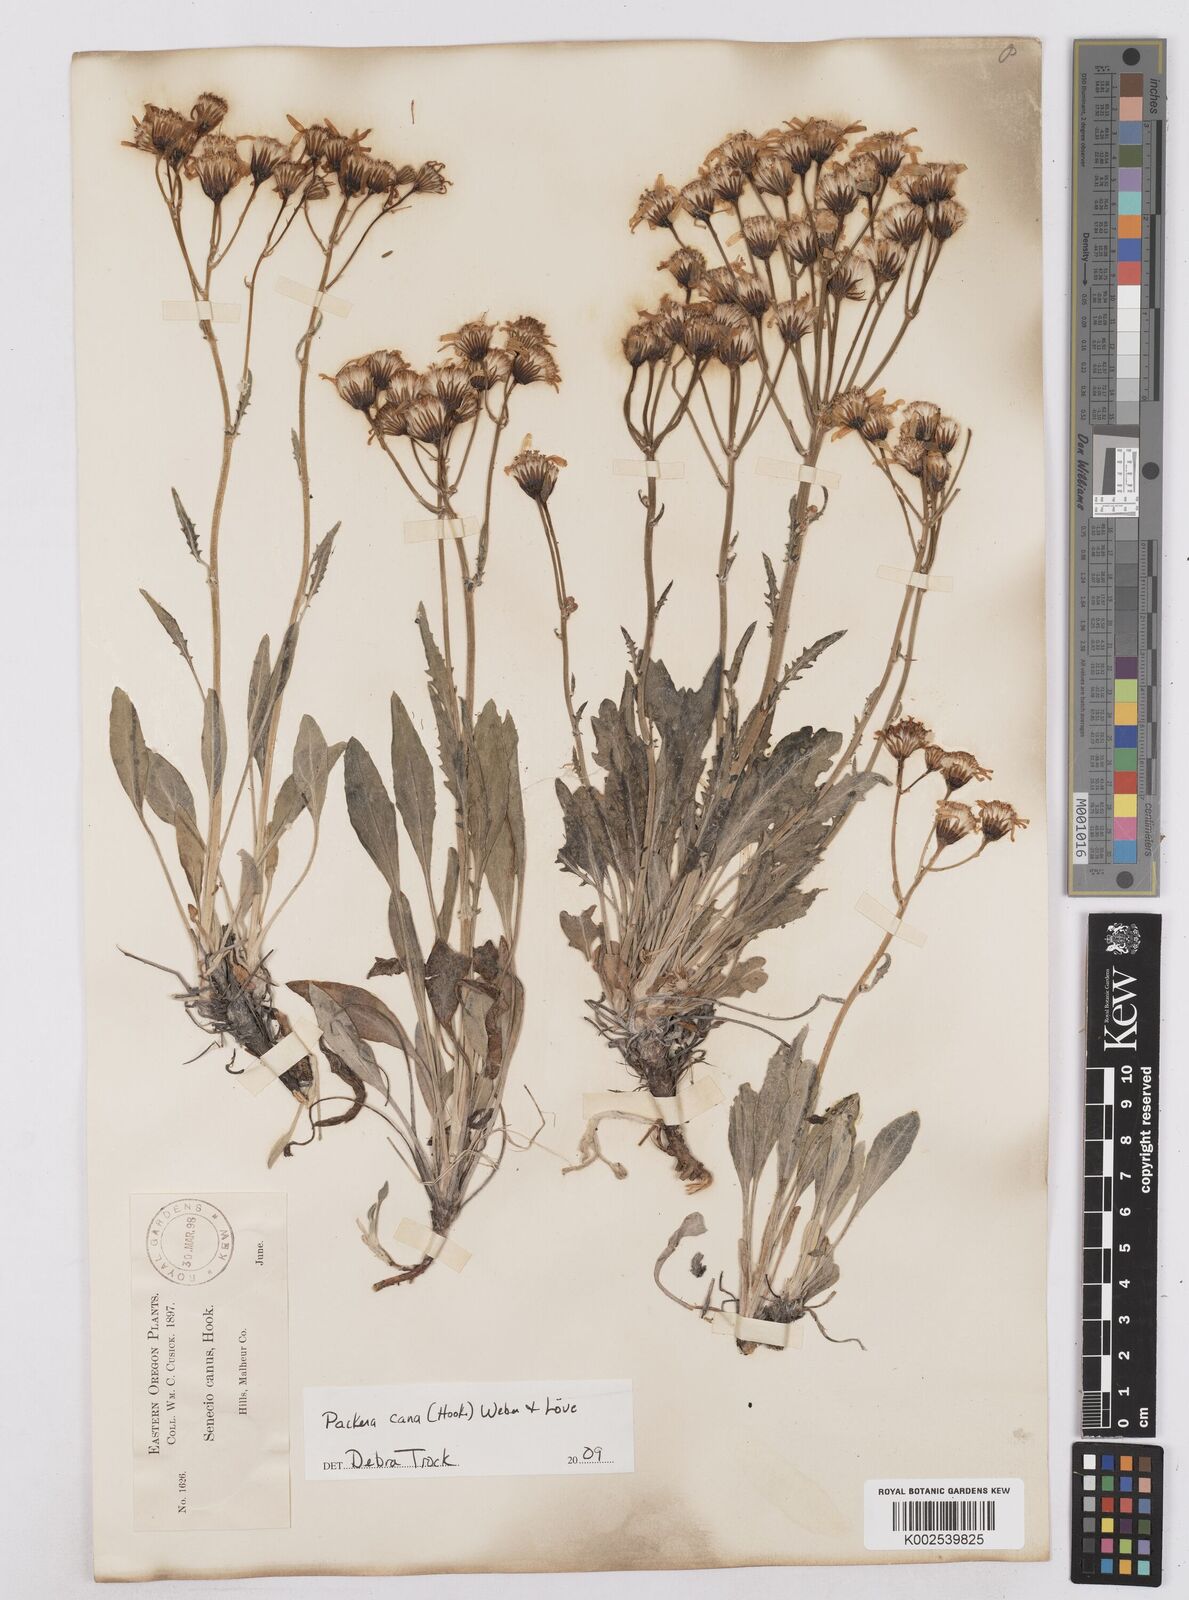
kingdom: Plantae
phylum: Tracheophyta
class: Magnoliopsida
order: Asterales
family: Asteraceae
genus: Packera
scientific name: Packera cana
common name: Woolly groundsel
